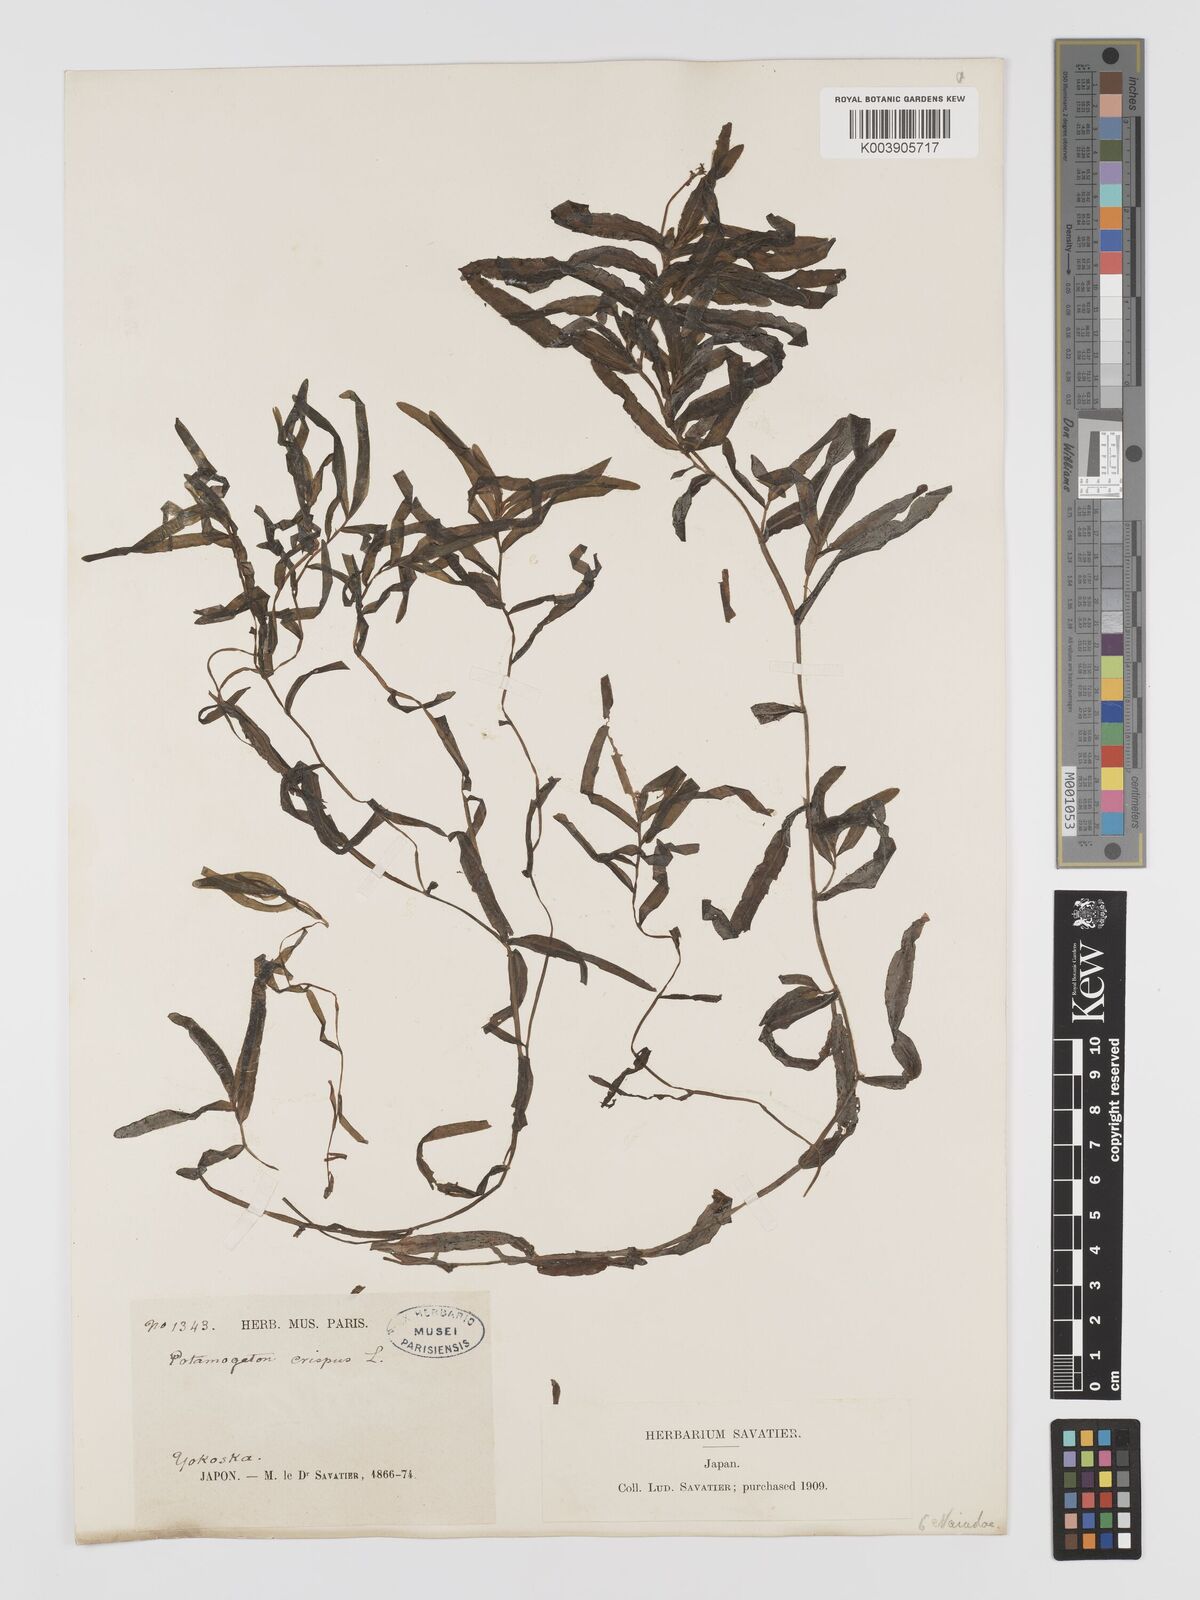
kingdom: Plantae
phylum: Tracheophyta
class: Liliopsida
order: Alismatales
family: Potamogetonaceae
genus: Potamogeton
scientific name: Potamogeton crispus
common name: Curled pondweed
